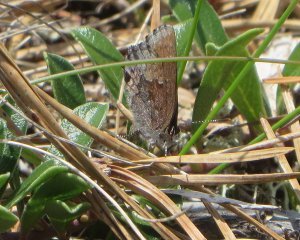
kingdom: Animalia
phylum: Arthropoda
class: Insecta
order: Lepidoptera
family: Lycaenidae
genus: Callophrys
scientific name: Callophrys polios
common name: Hoary Elfin
